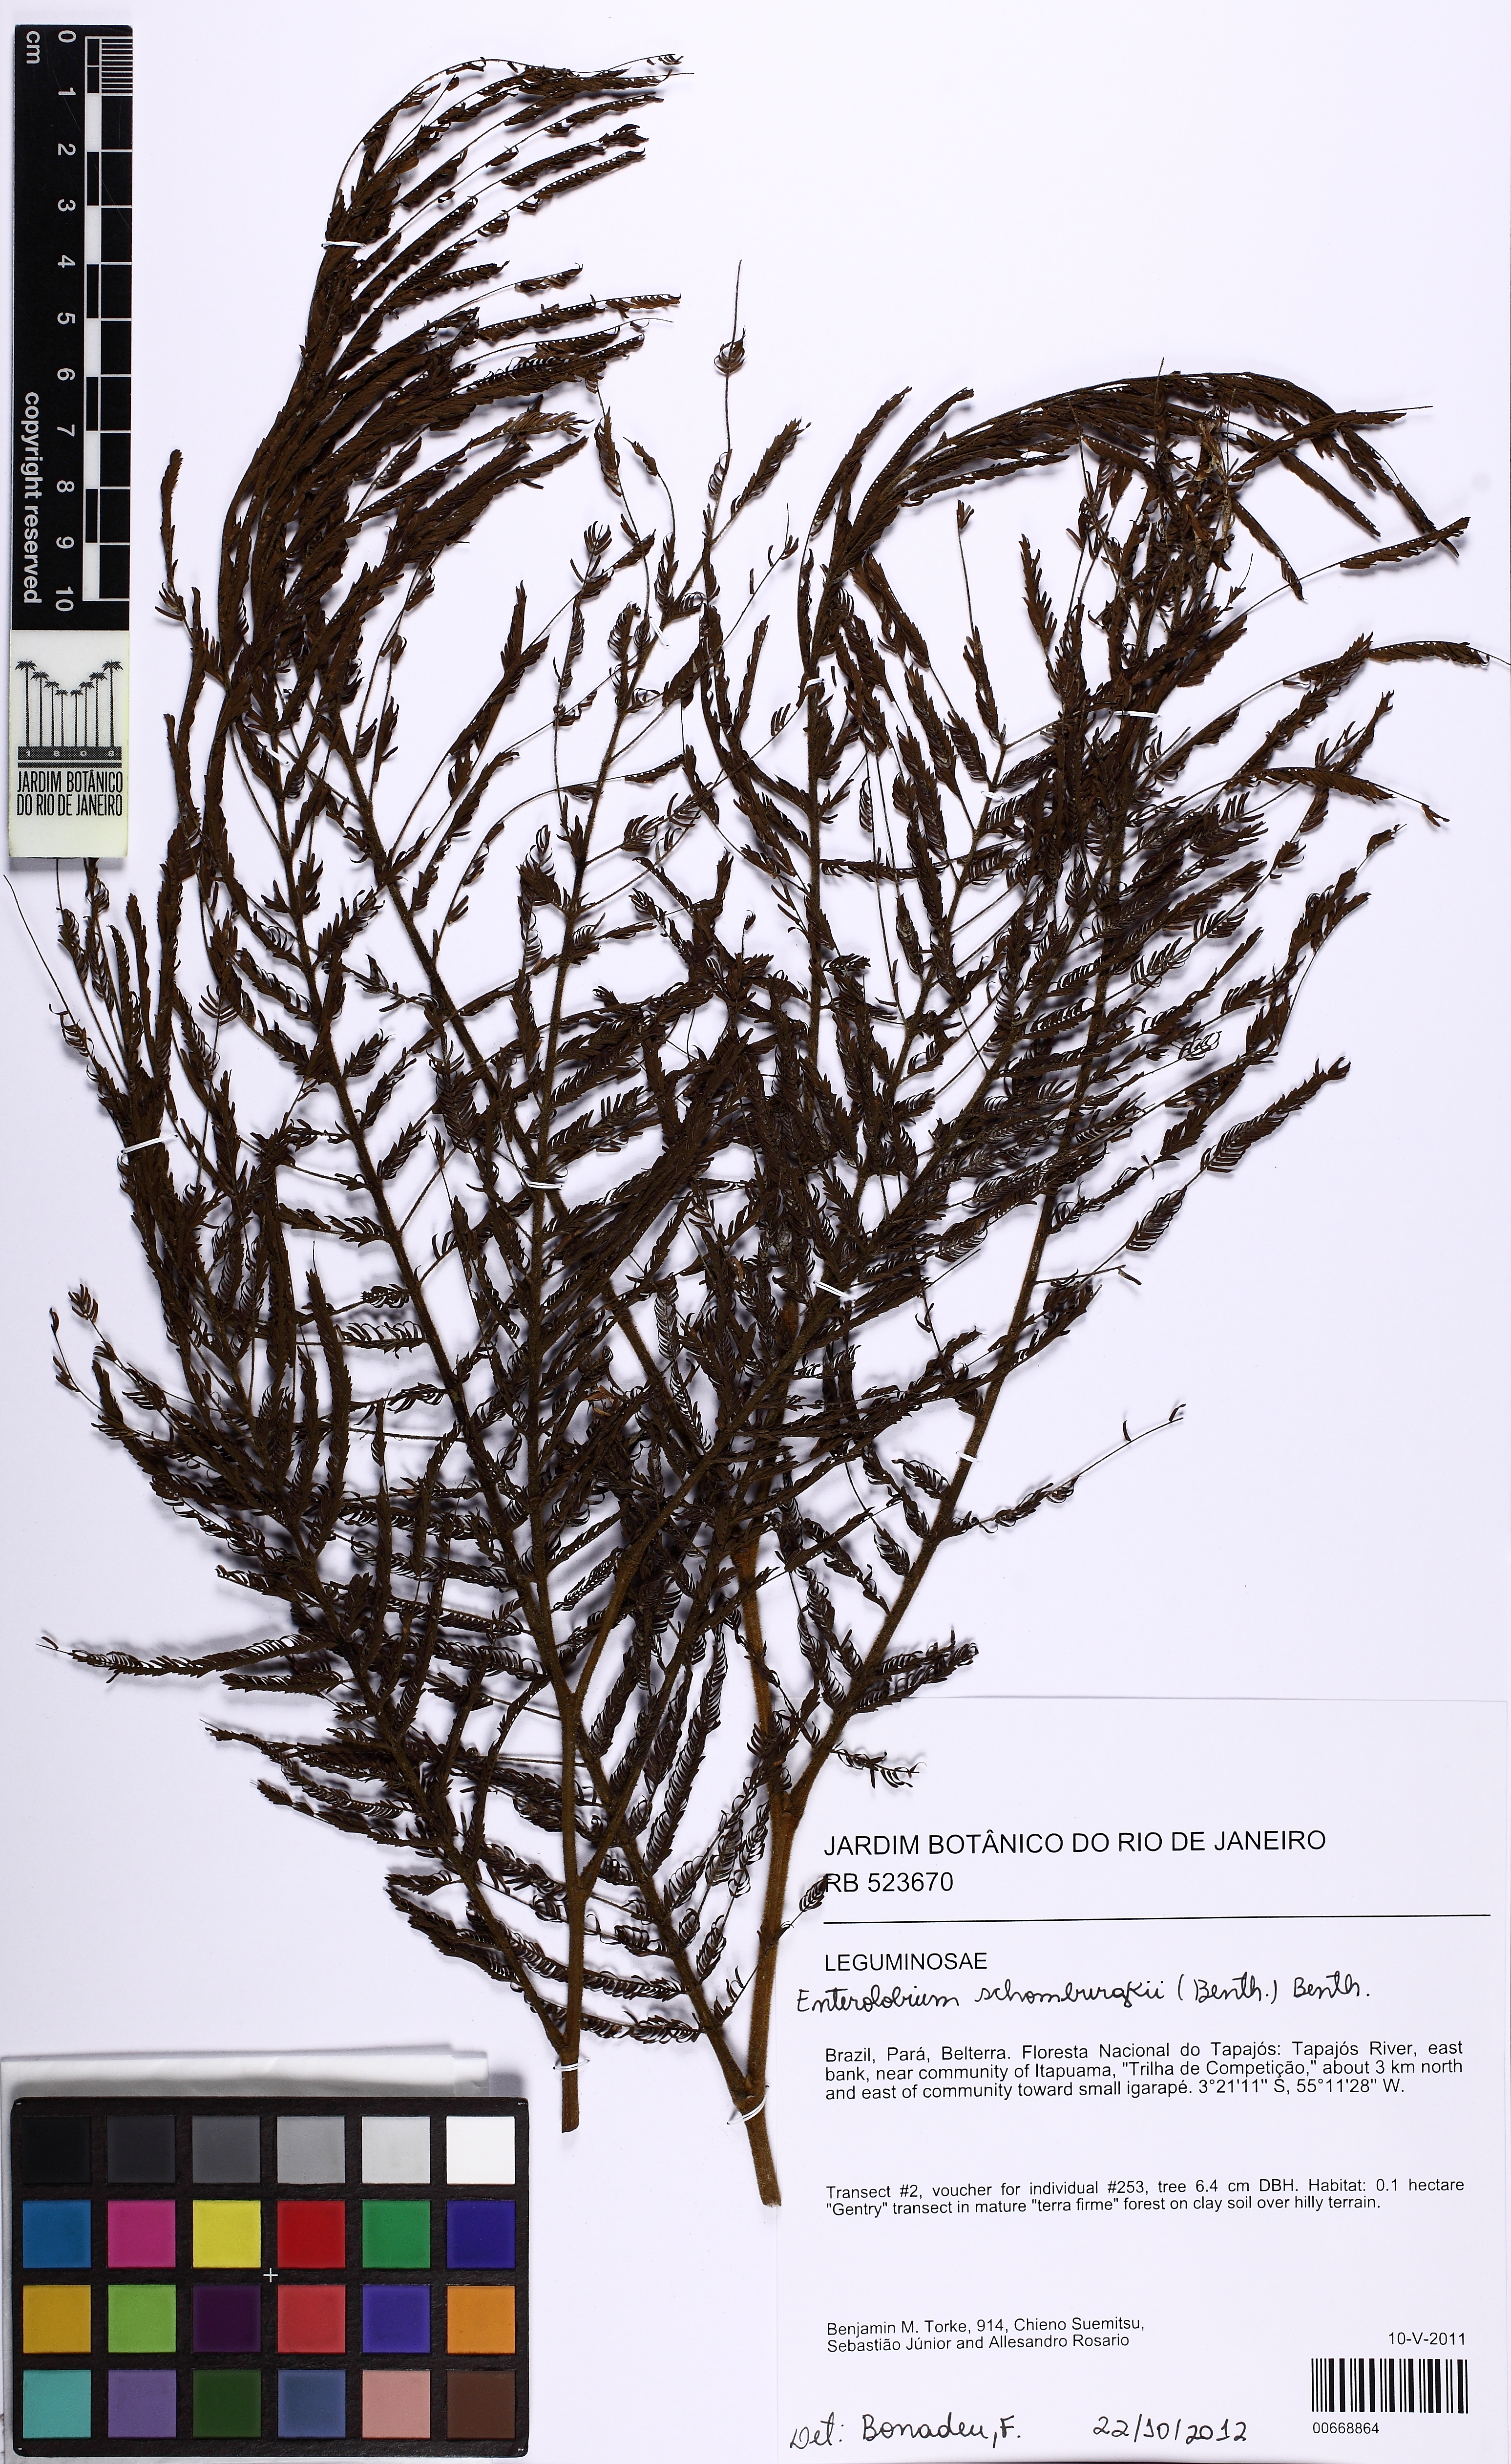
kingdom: Plantae
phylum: Tracheophyta
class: Magnoliopsida
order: Fabales
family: Fabaceae
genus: Enterolobium
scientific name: Enterolobium schomburgkii
